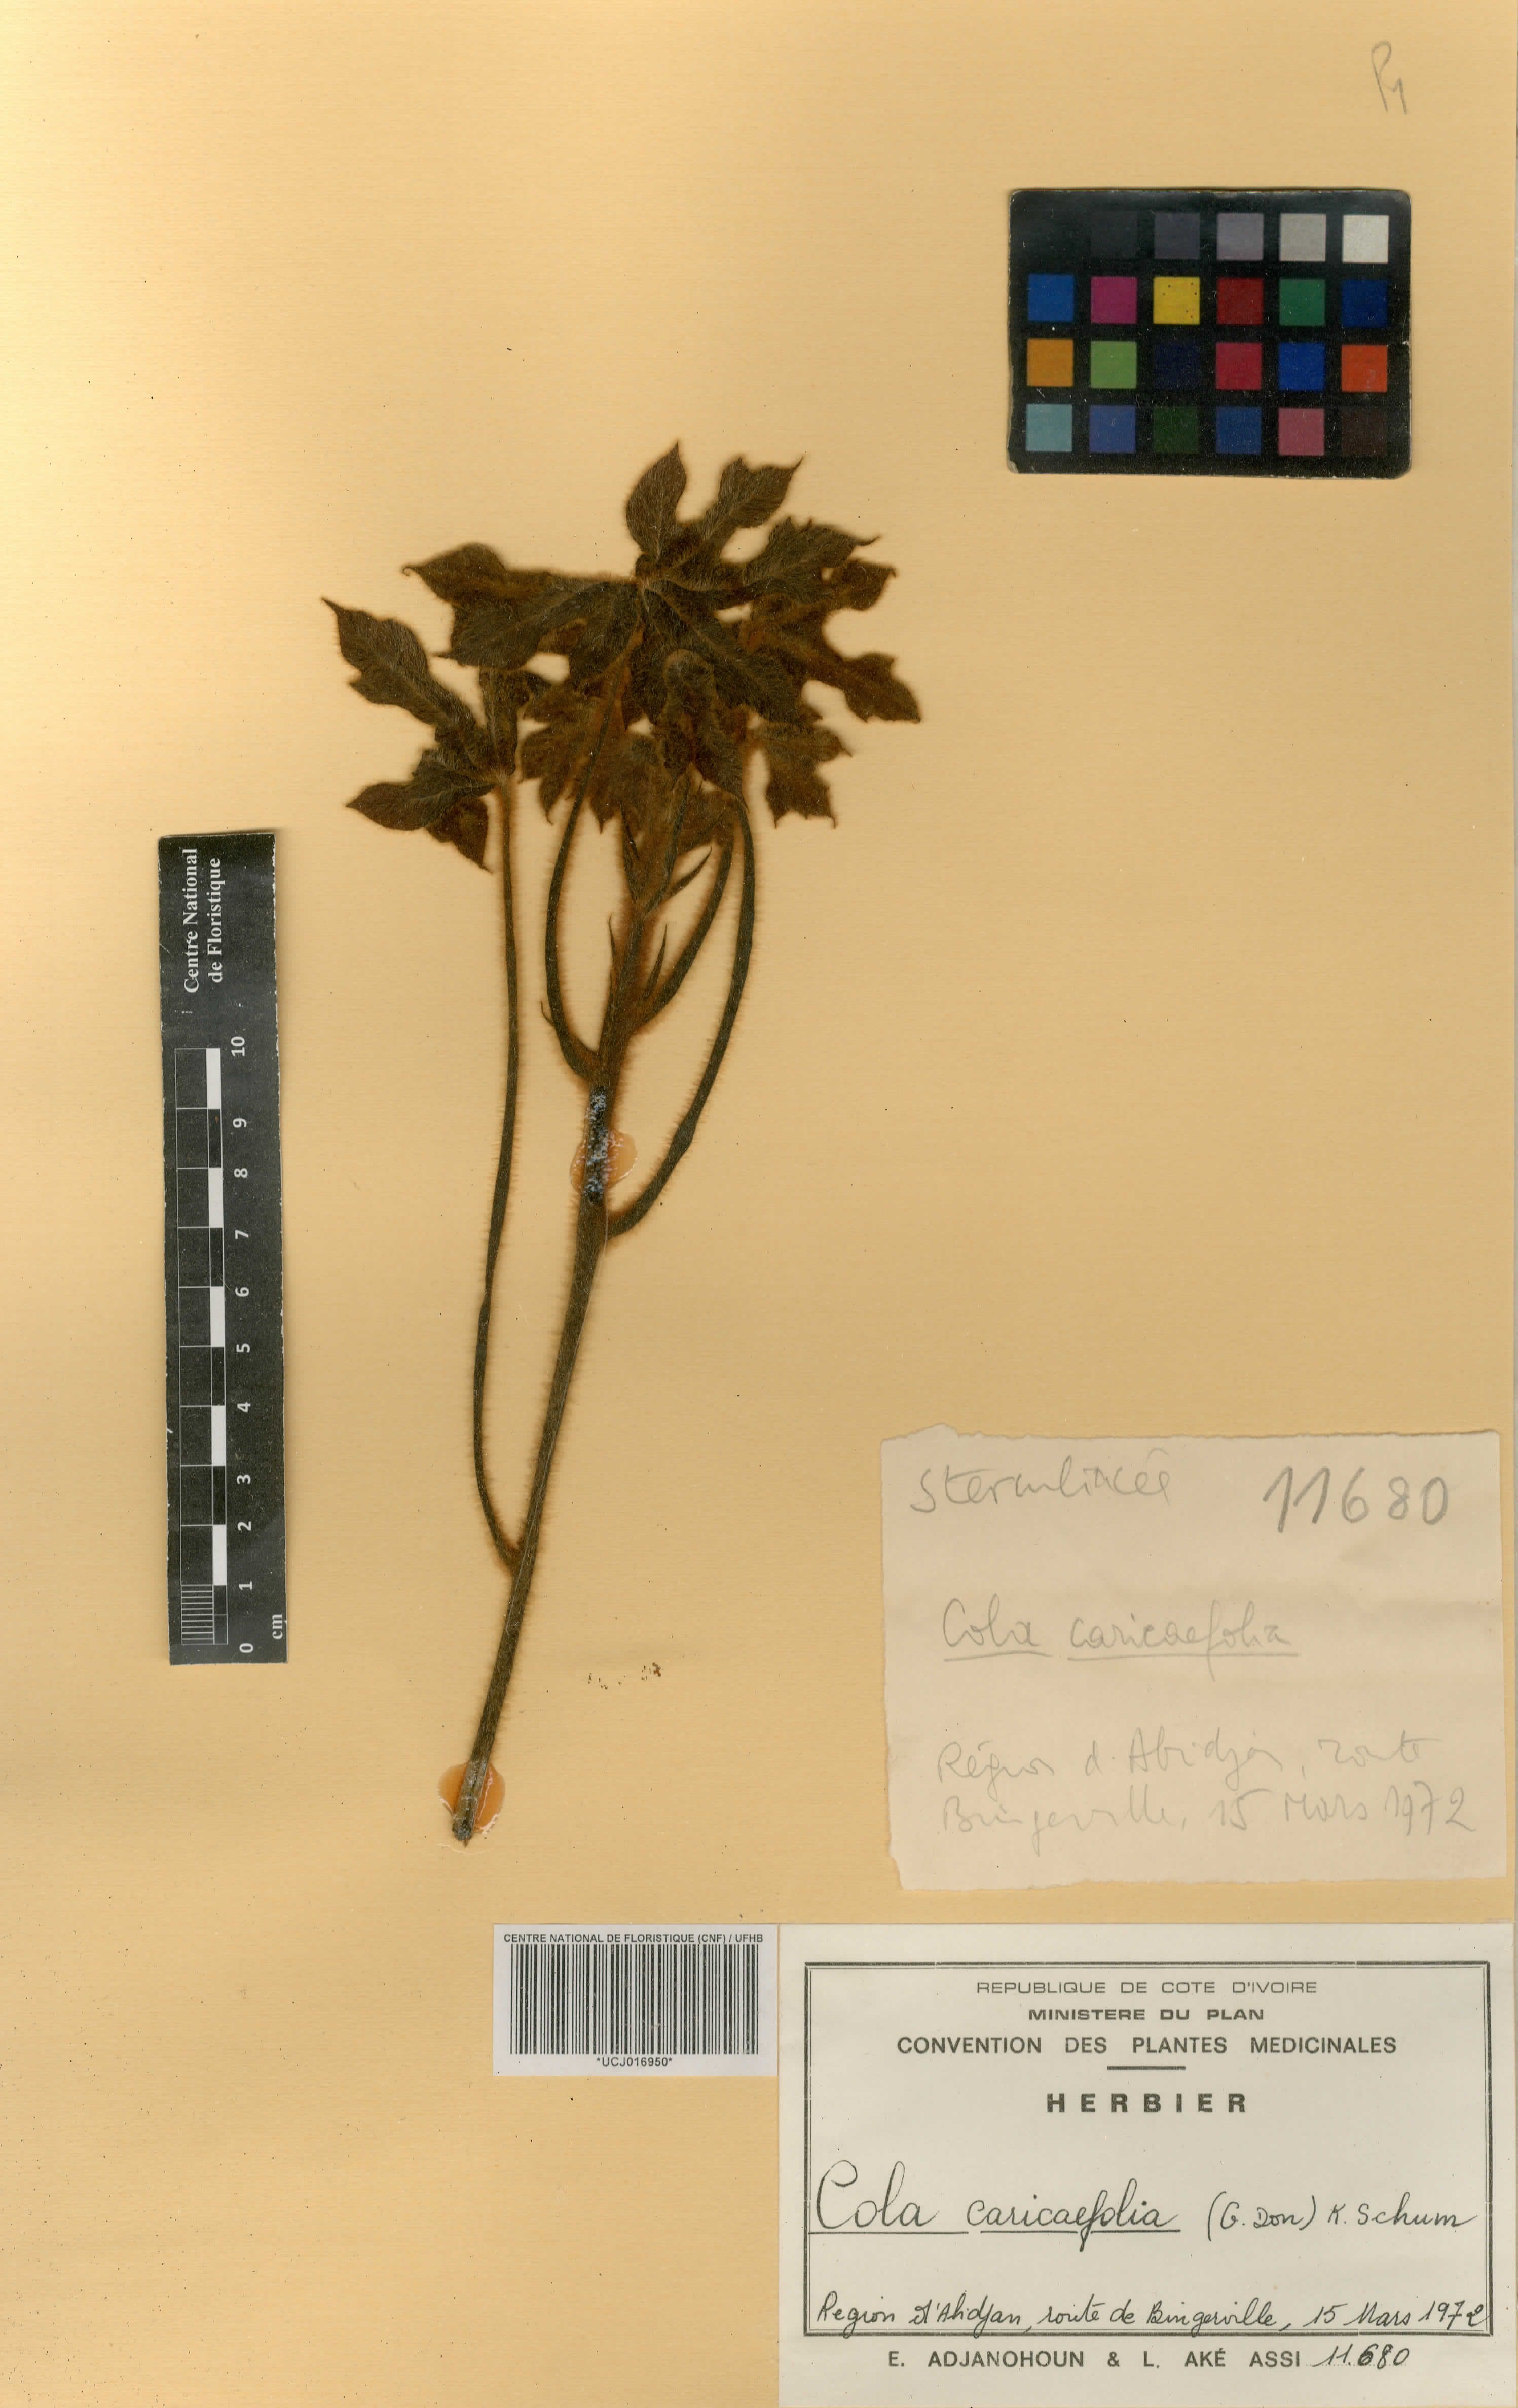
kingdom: Plantae
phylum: Tracheophyta
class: Magnoliopsida
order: Malvales
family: Malvaceae
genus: Cola
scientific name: Cola caricifolia
